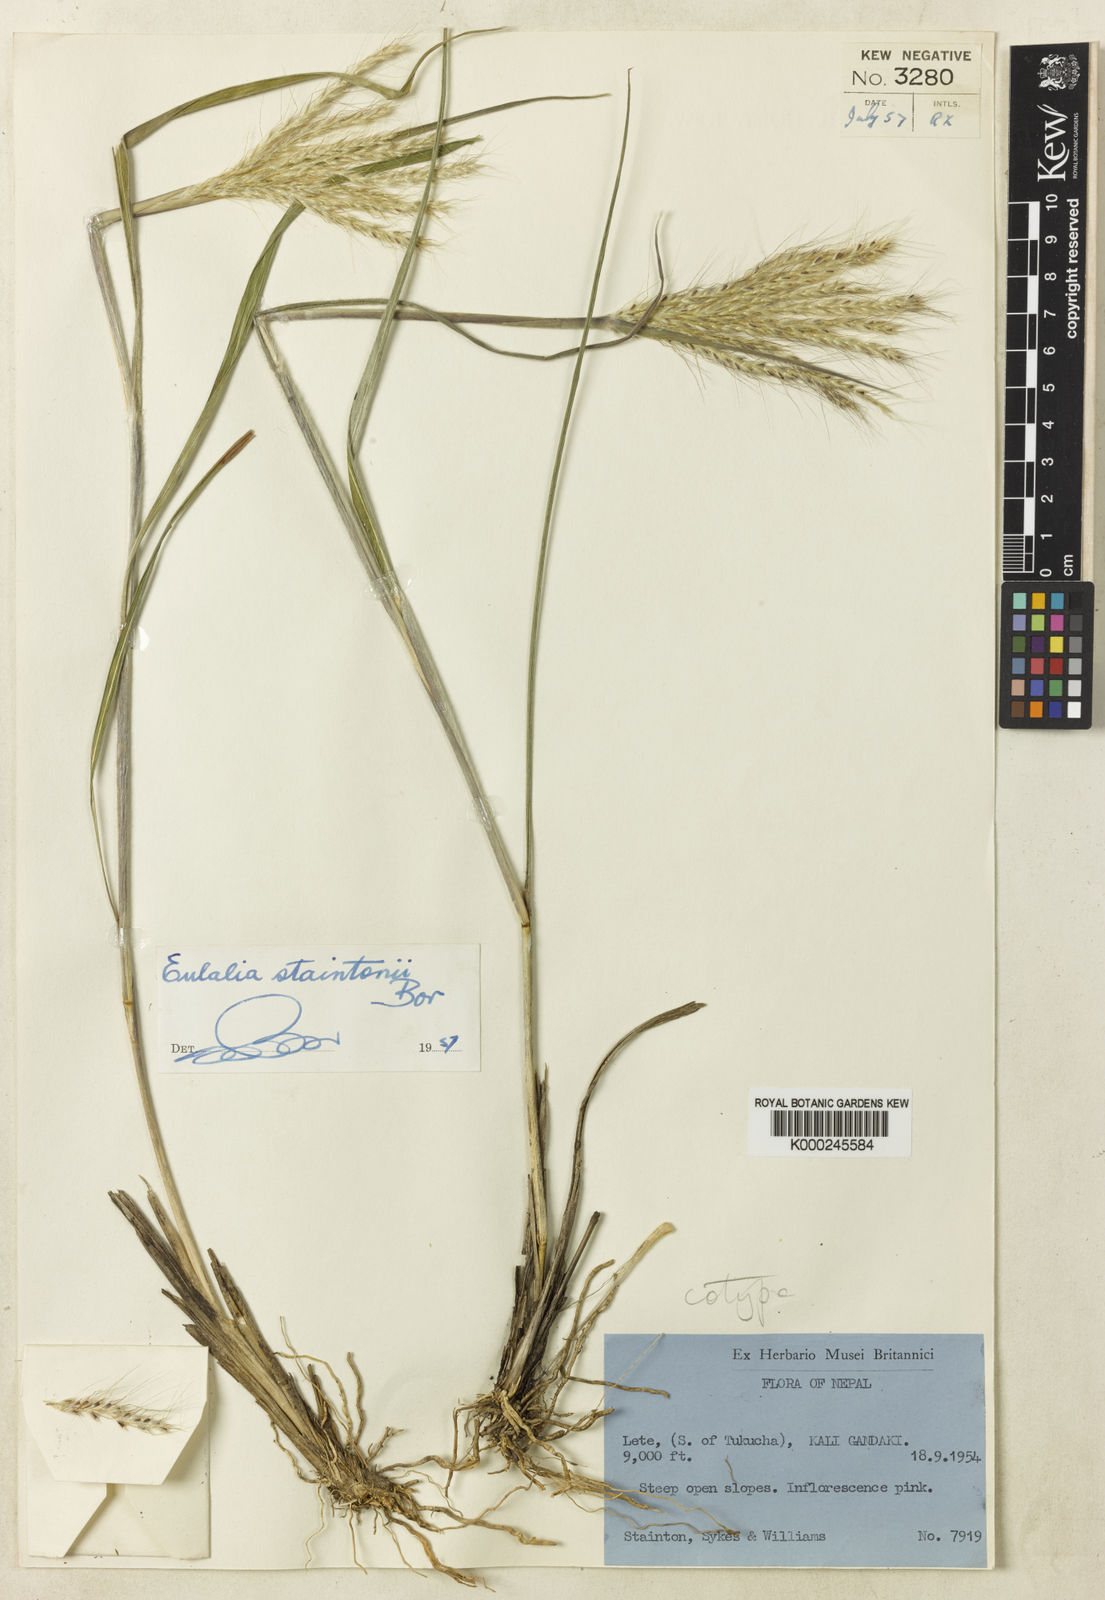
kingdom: Plantae
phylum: Tracheophyta
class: Liliopsida
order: Poales
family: Poaceae
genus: Eulalia
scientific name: Eulalia staintonii
